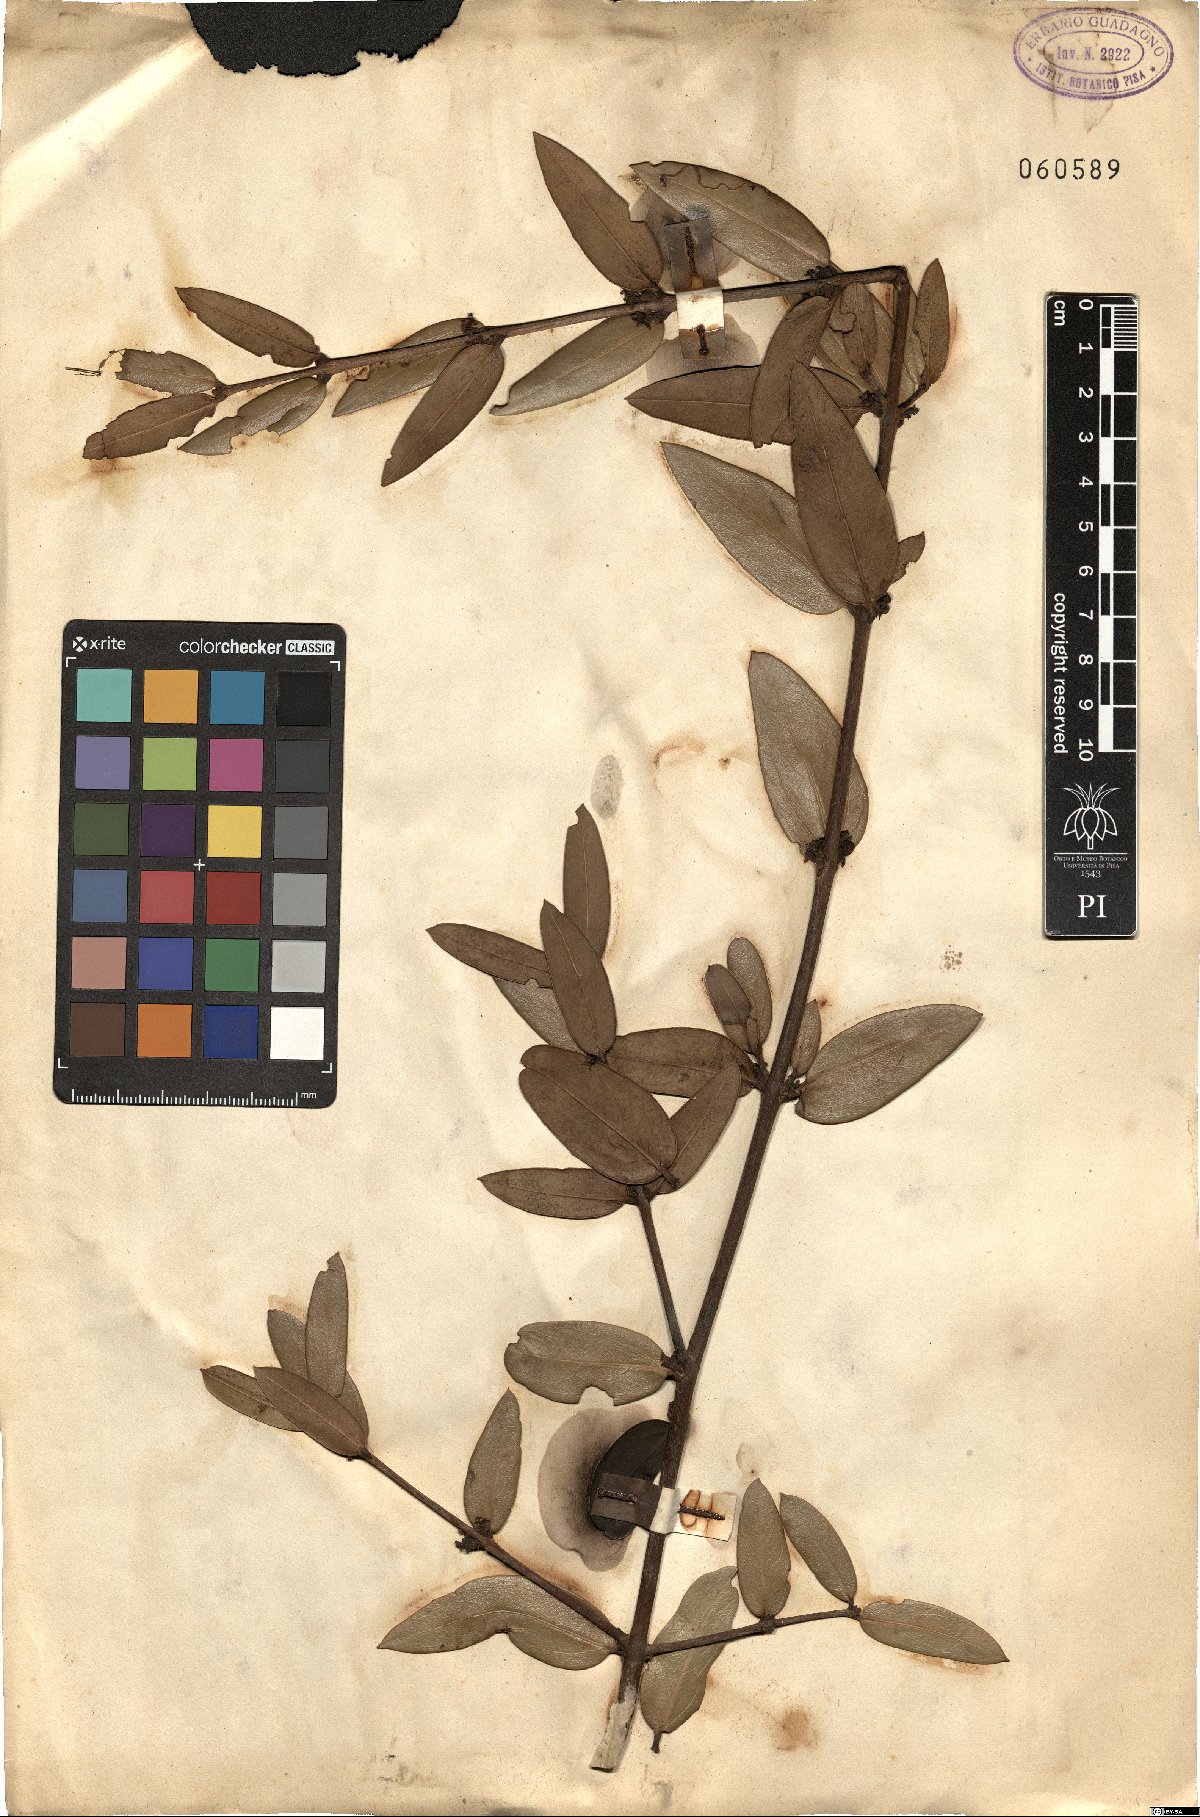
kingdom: Plantae
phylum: Tracheophyta
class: Magnoliopsida
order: Lamiales
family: Oleaceae
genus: Phillyrea
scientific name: Phillyrea angustifolia
